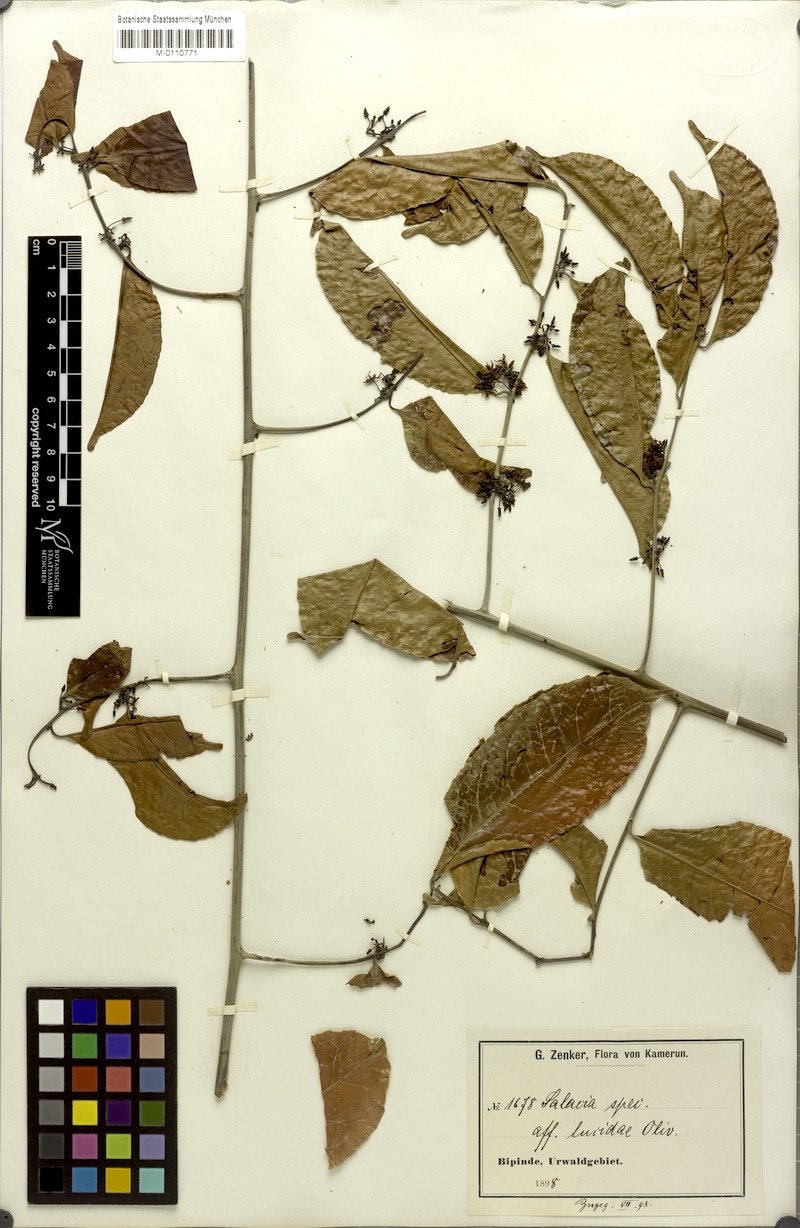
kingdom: Plantae
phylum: Tracheophyta
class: Magnoliopsida
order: Celastrales
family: Celastraceae
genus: Salacia
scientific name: Salacia
